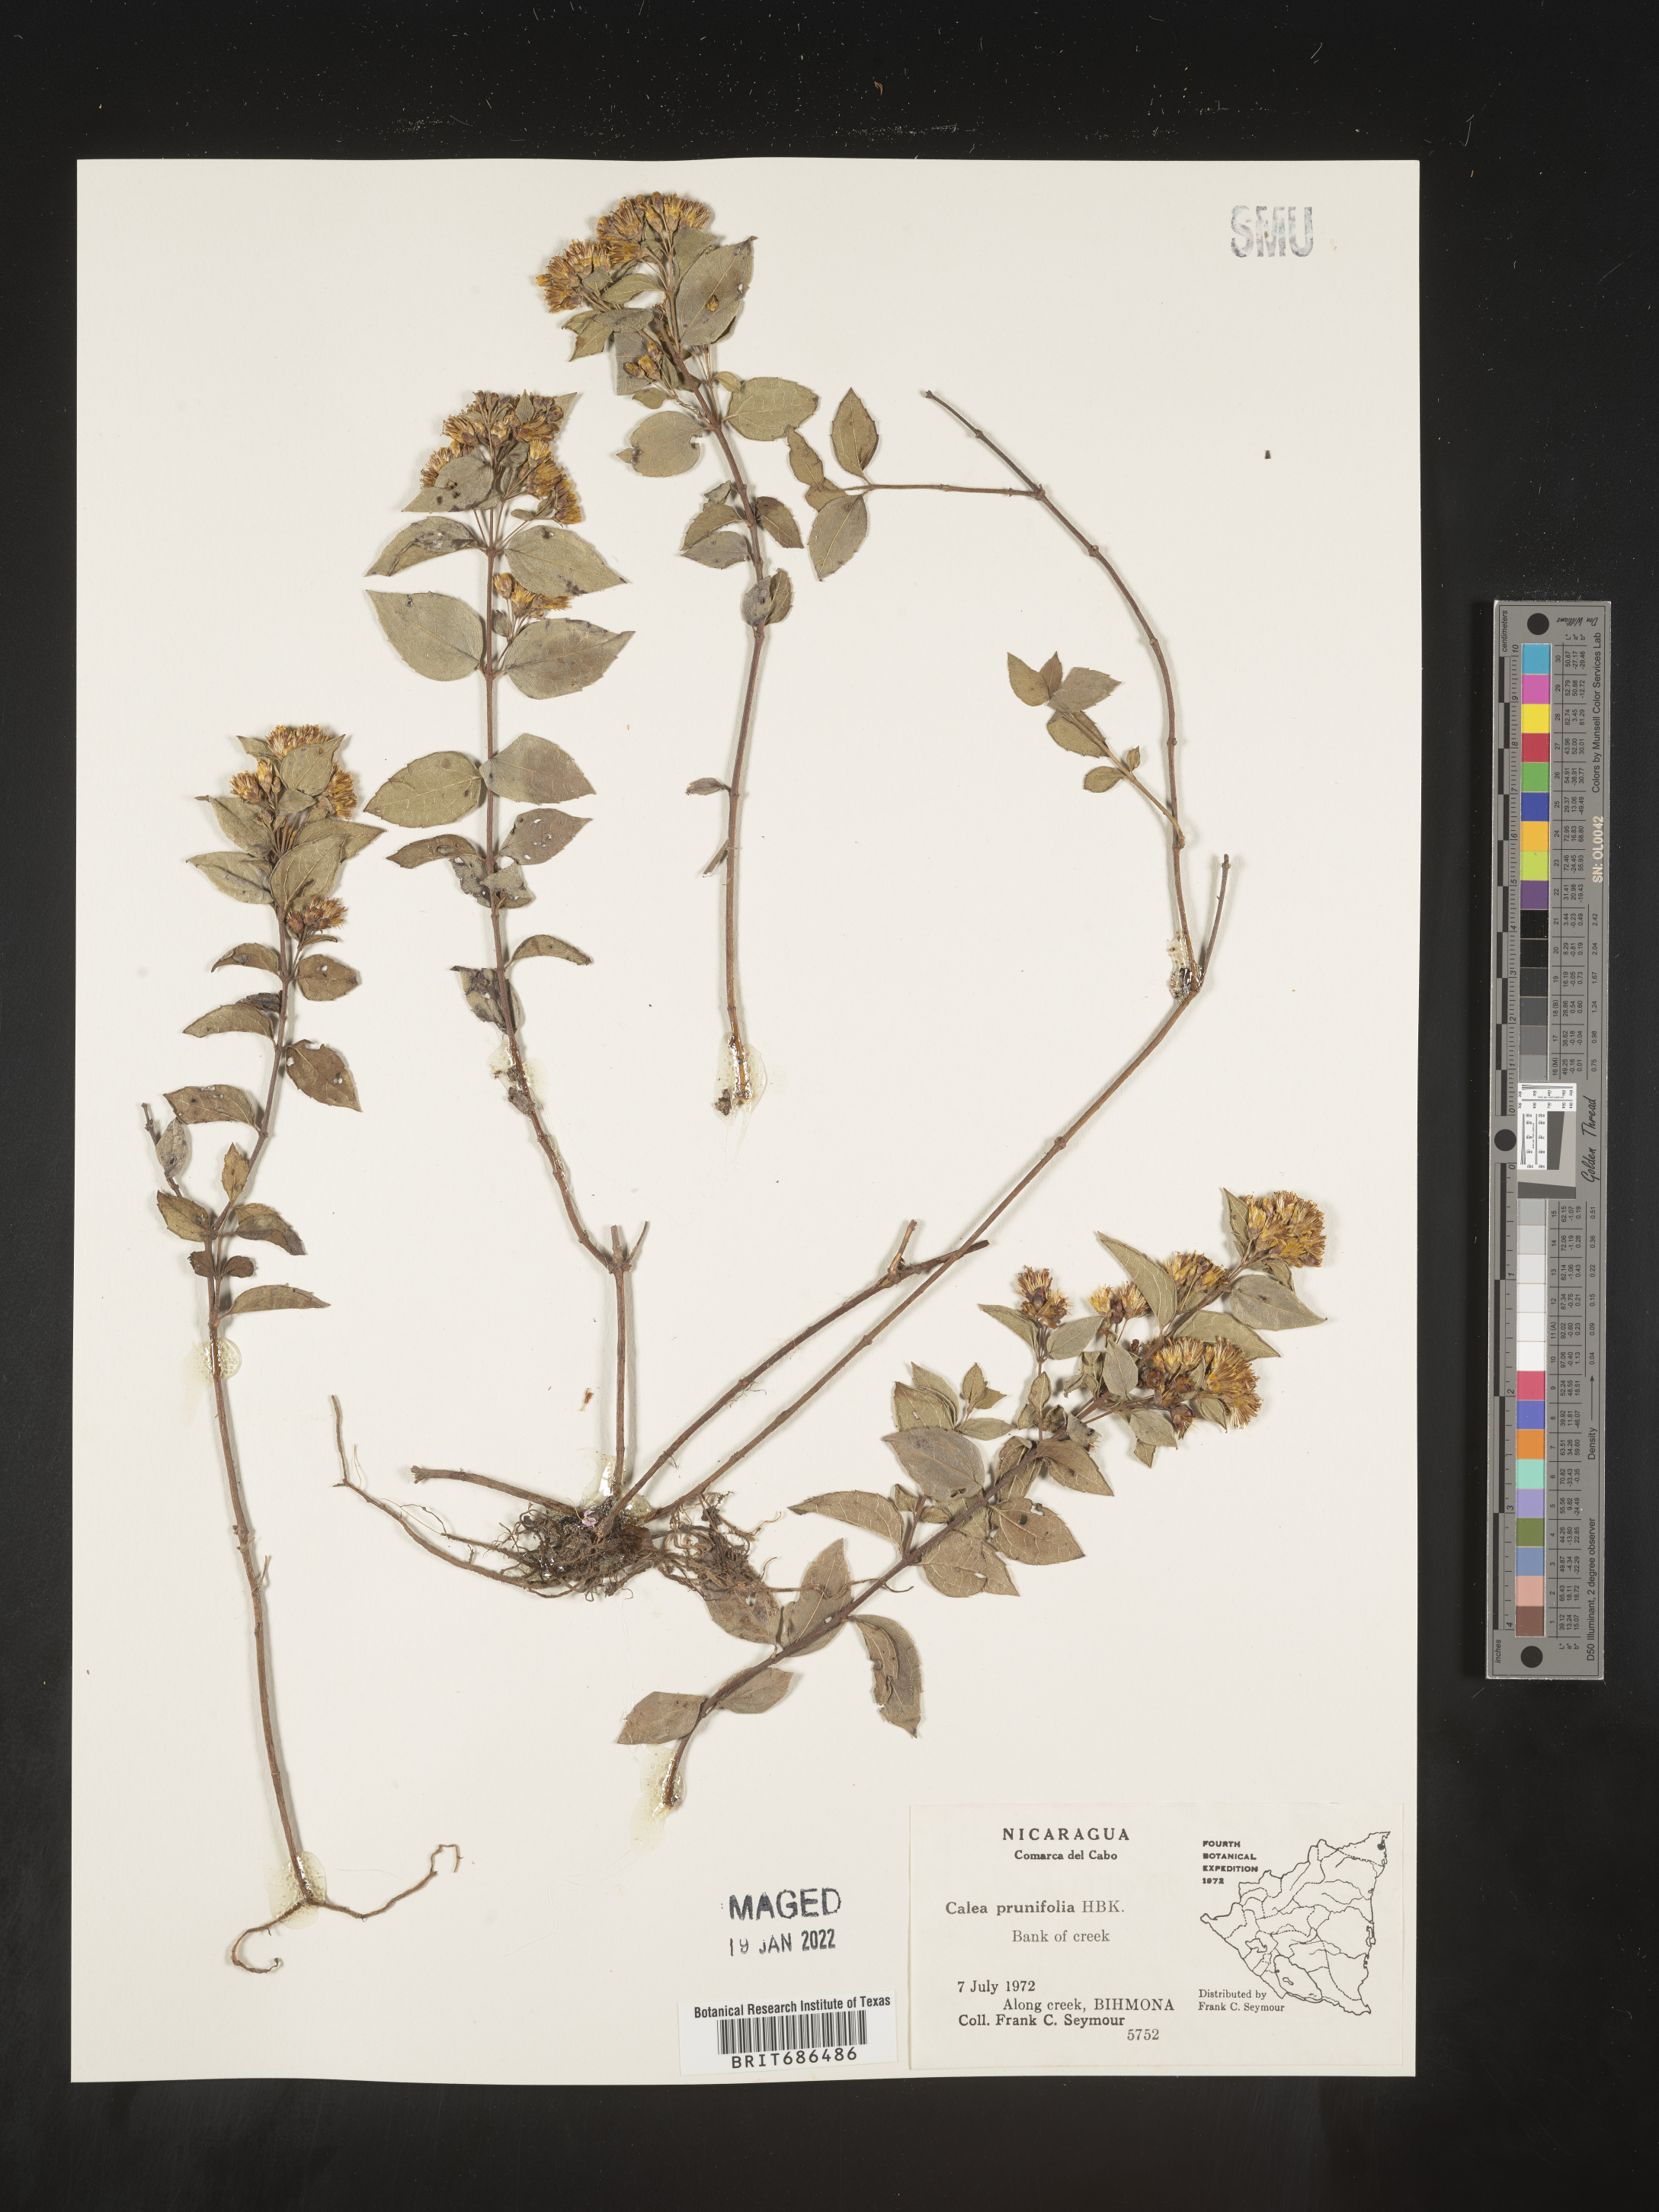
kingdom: Plantae
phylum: Tracheophyta
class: Magnoliopsida
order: Asterales
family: Asteraceae
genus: Calea
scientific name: Calea
